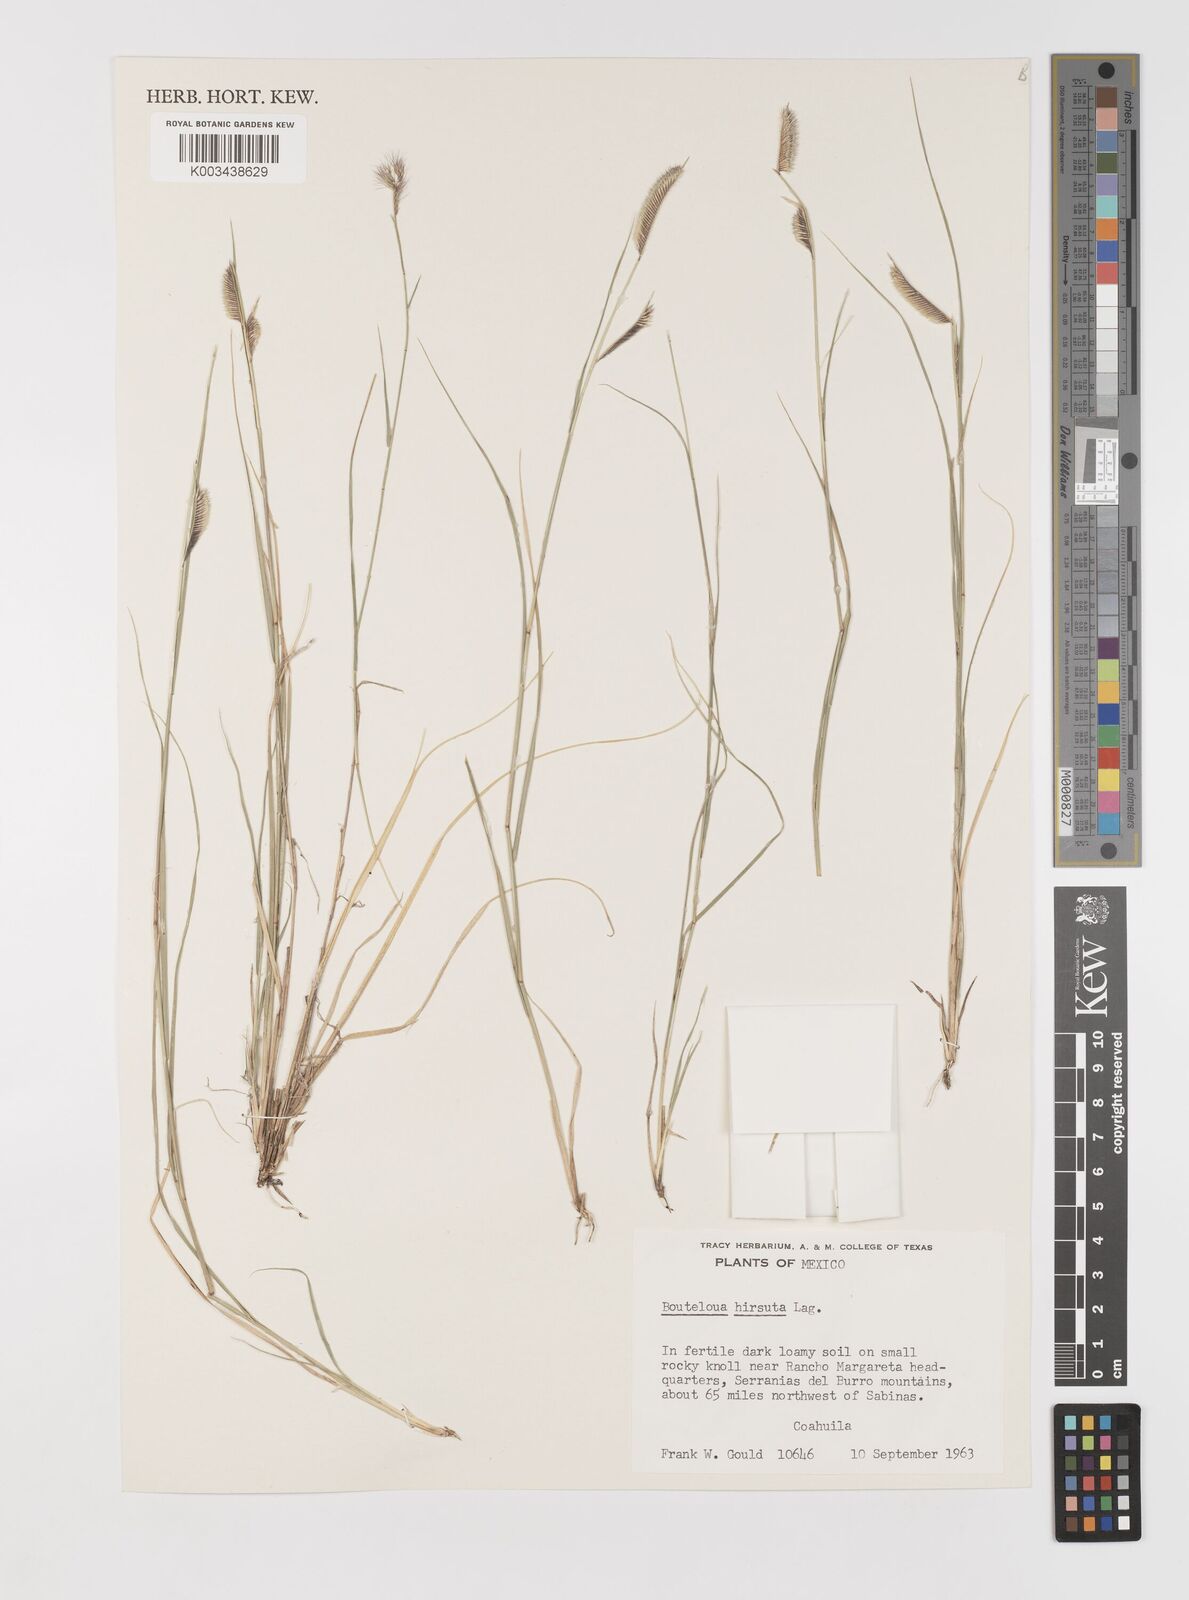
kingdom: Plantae
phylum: Tracheophyta
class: Liliopsida
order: Poales
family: Poaceae
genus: Bouteloua
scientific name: Bouteloua hirsuta
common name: Hairy grama
